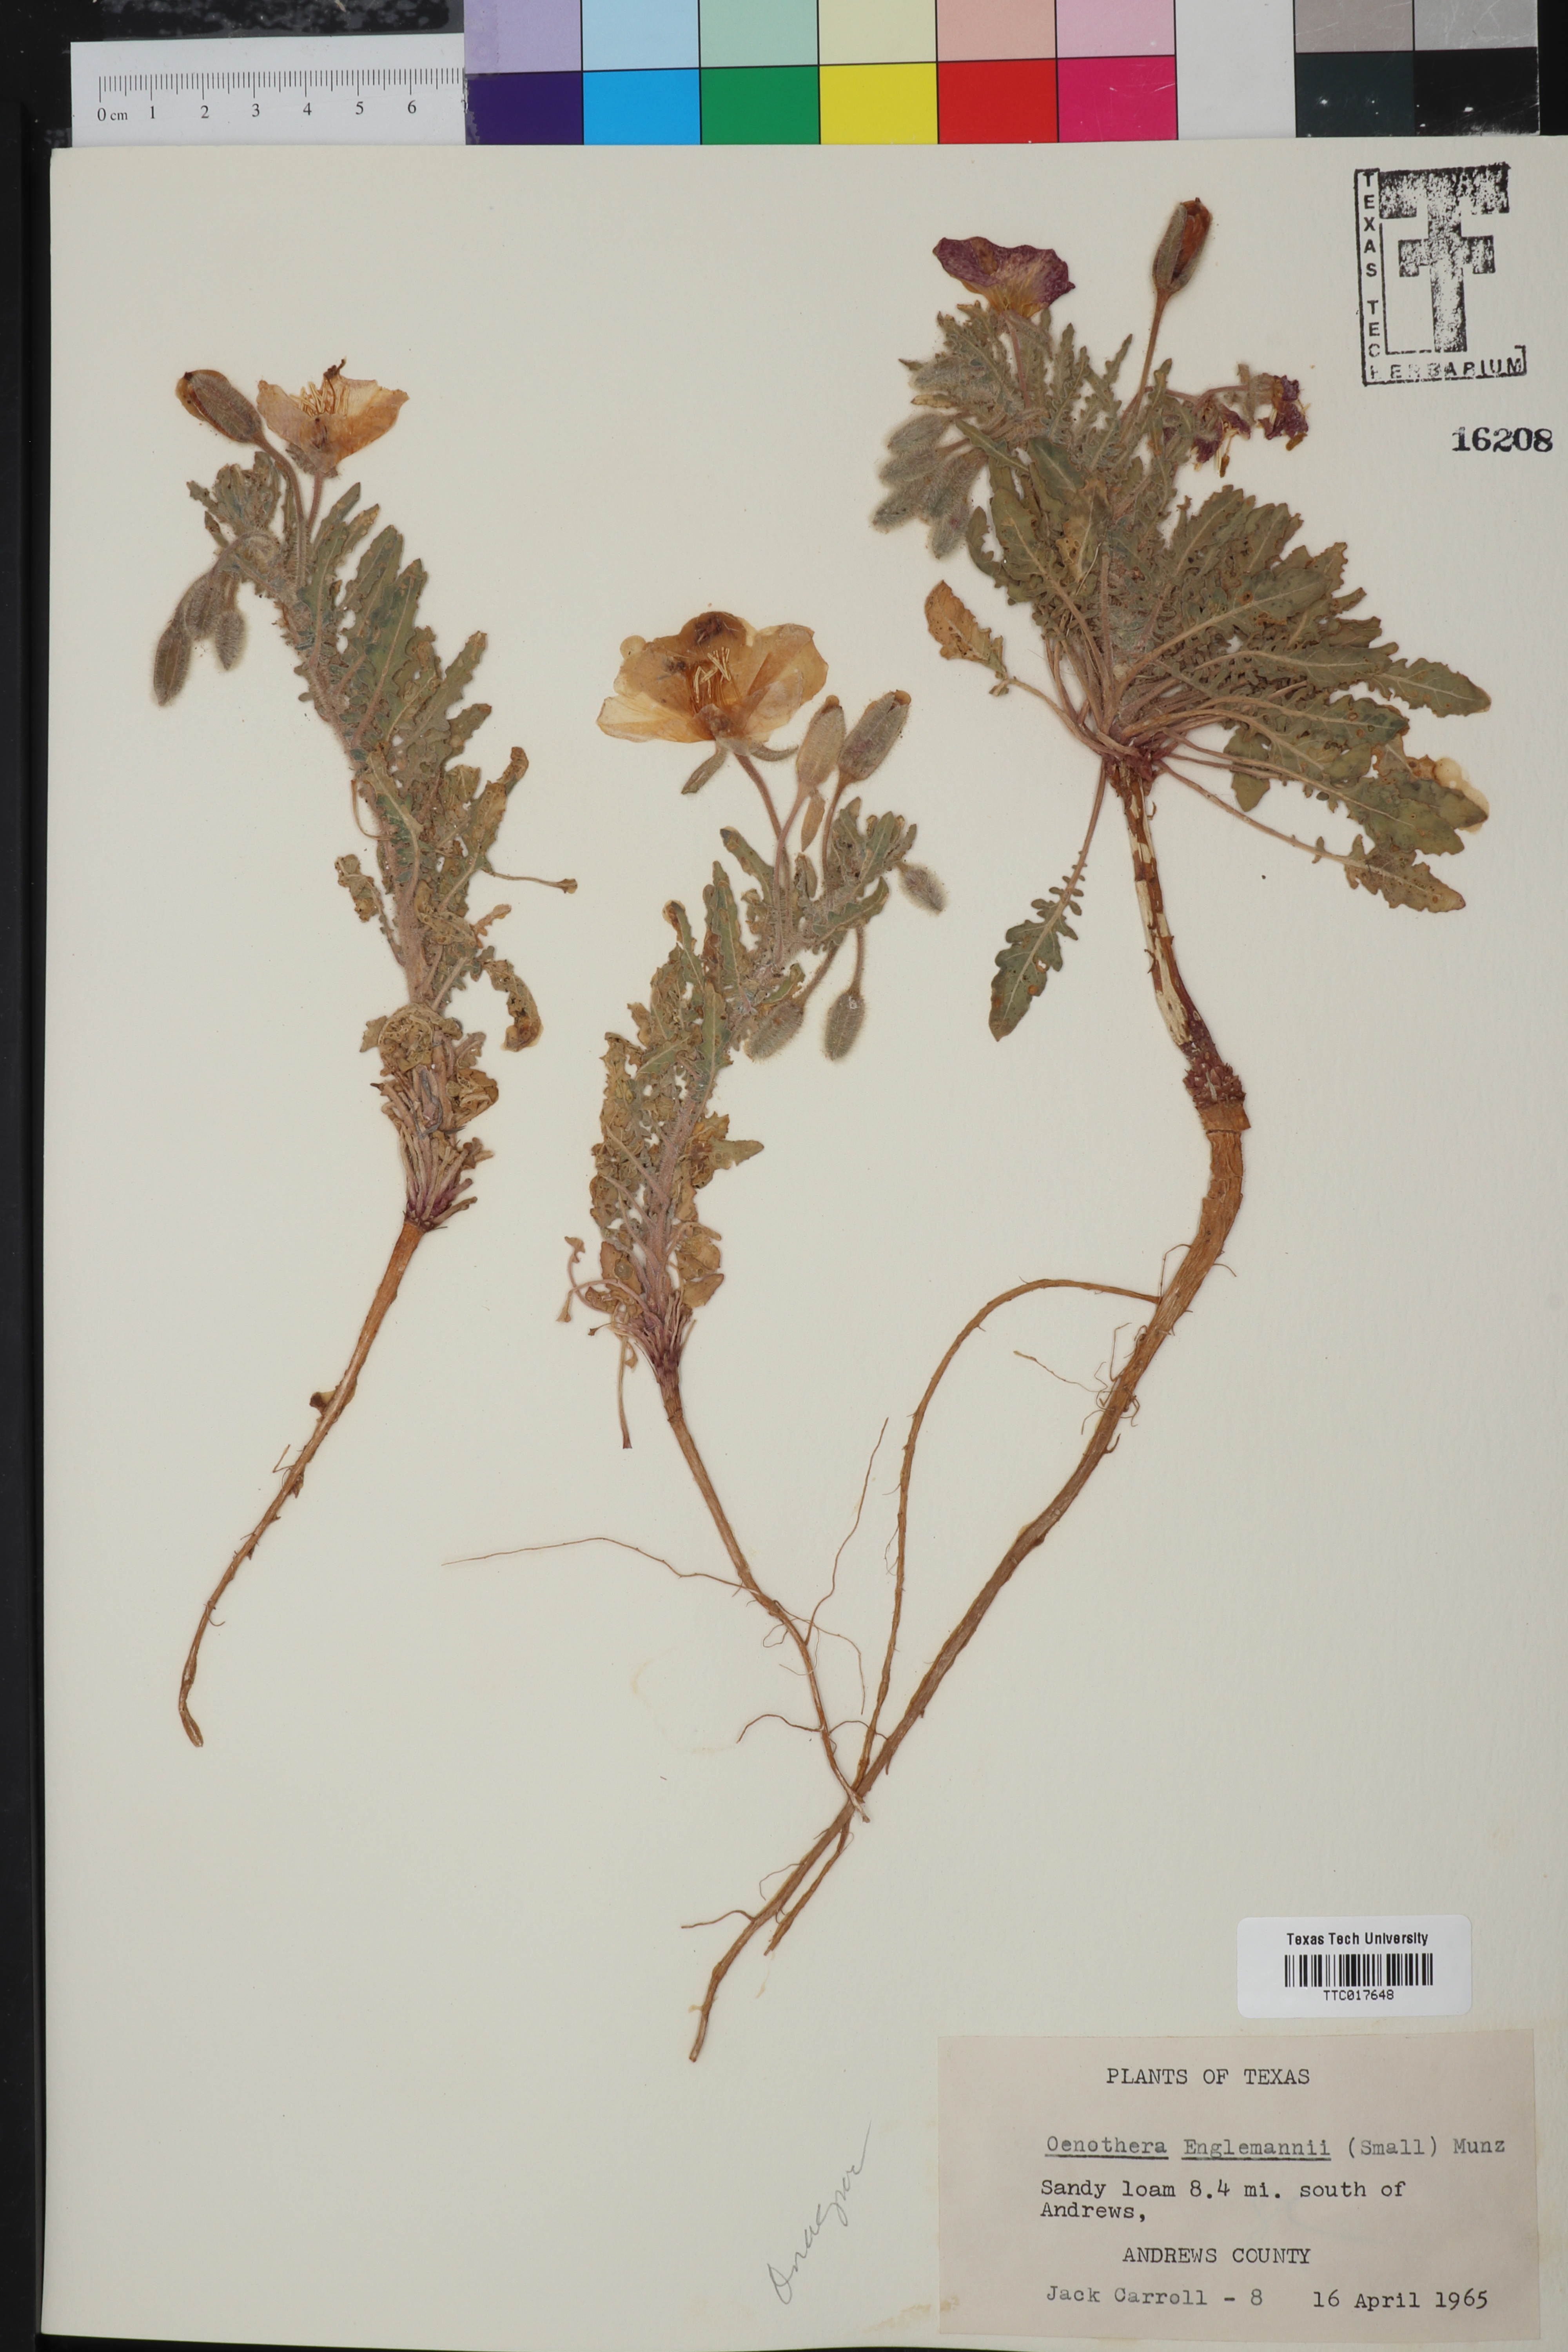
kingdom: Plantae
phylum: Tracheophyta
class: Magnoliopsida
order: Myrtales
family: Onagraceae
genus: Oenothera
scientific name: Oenothera engelmannii
